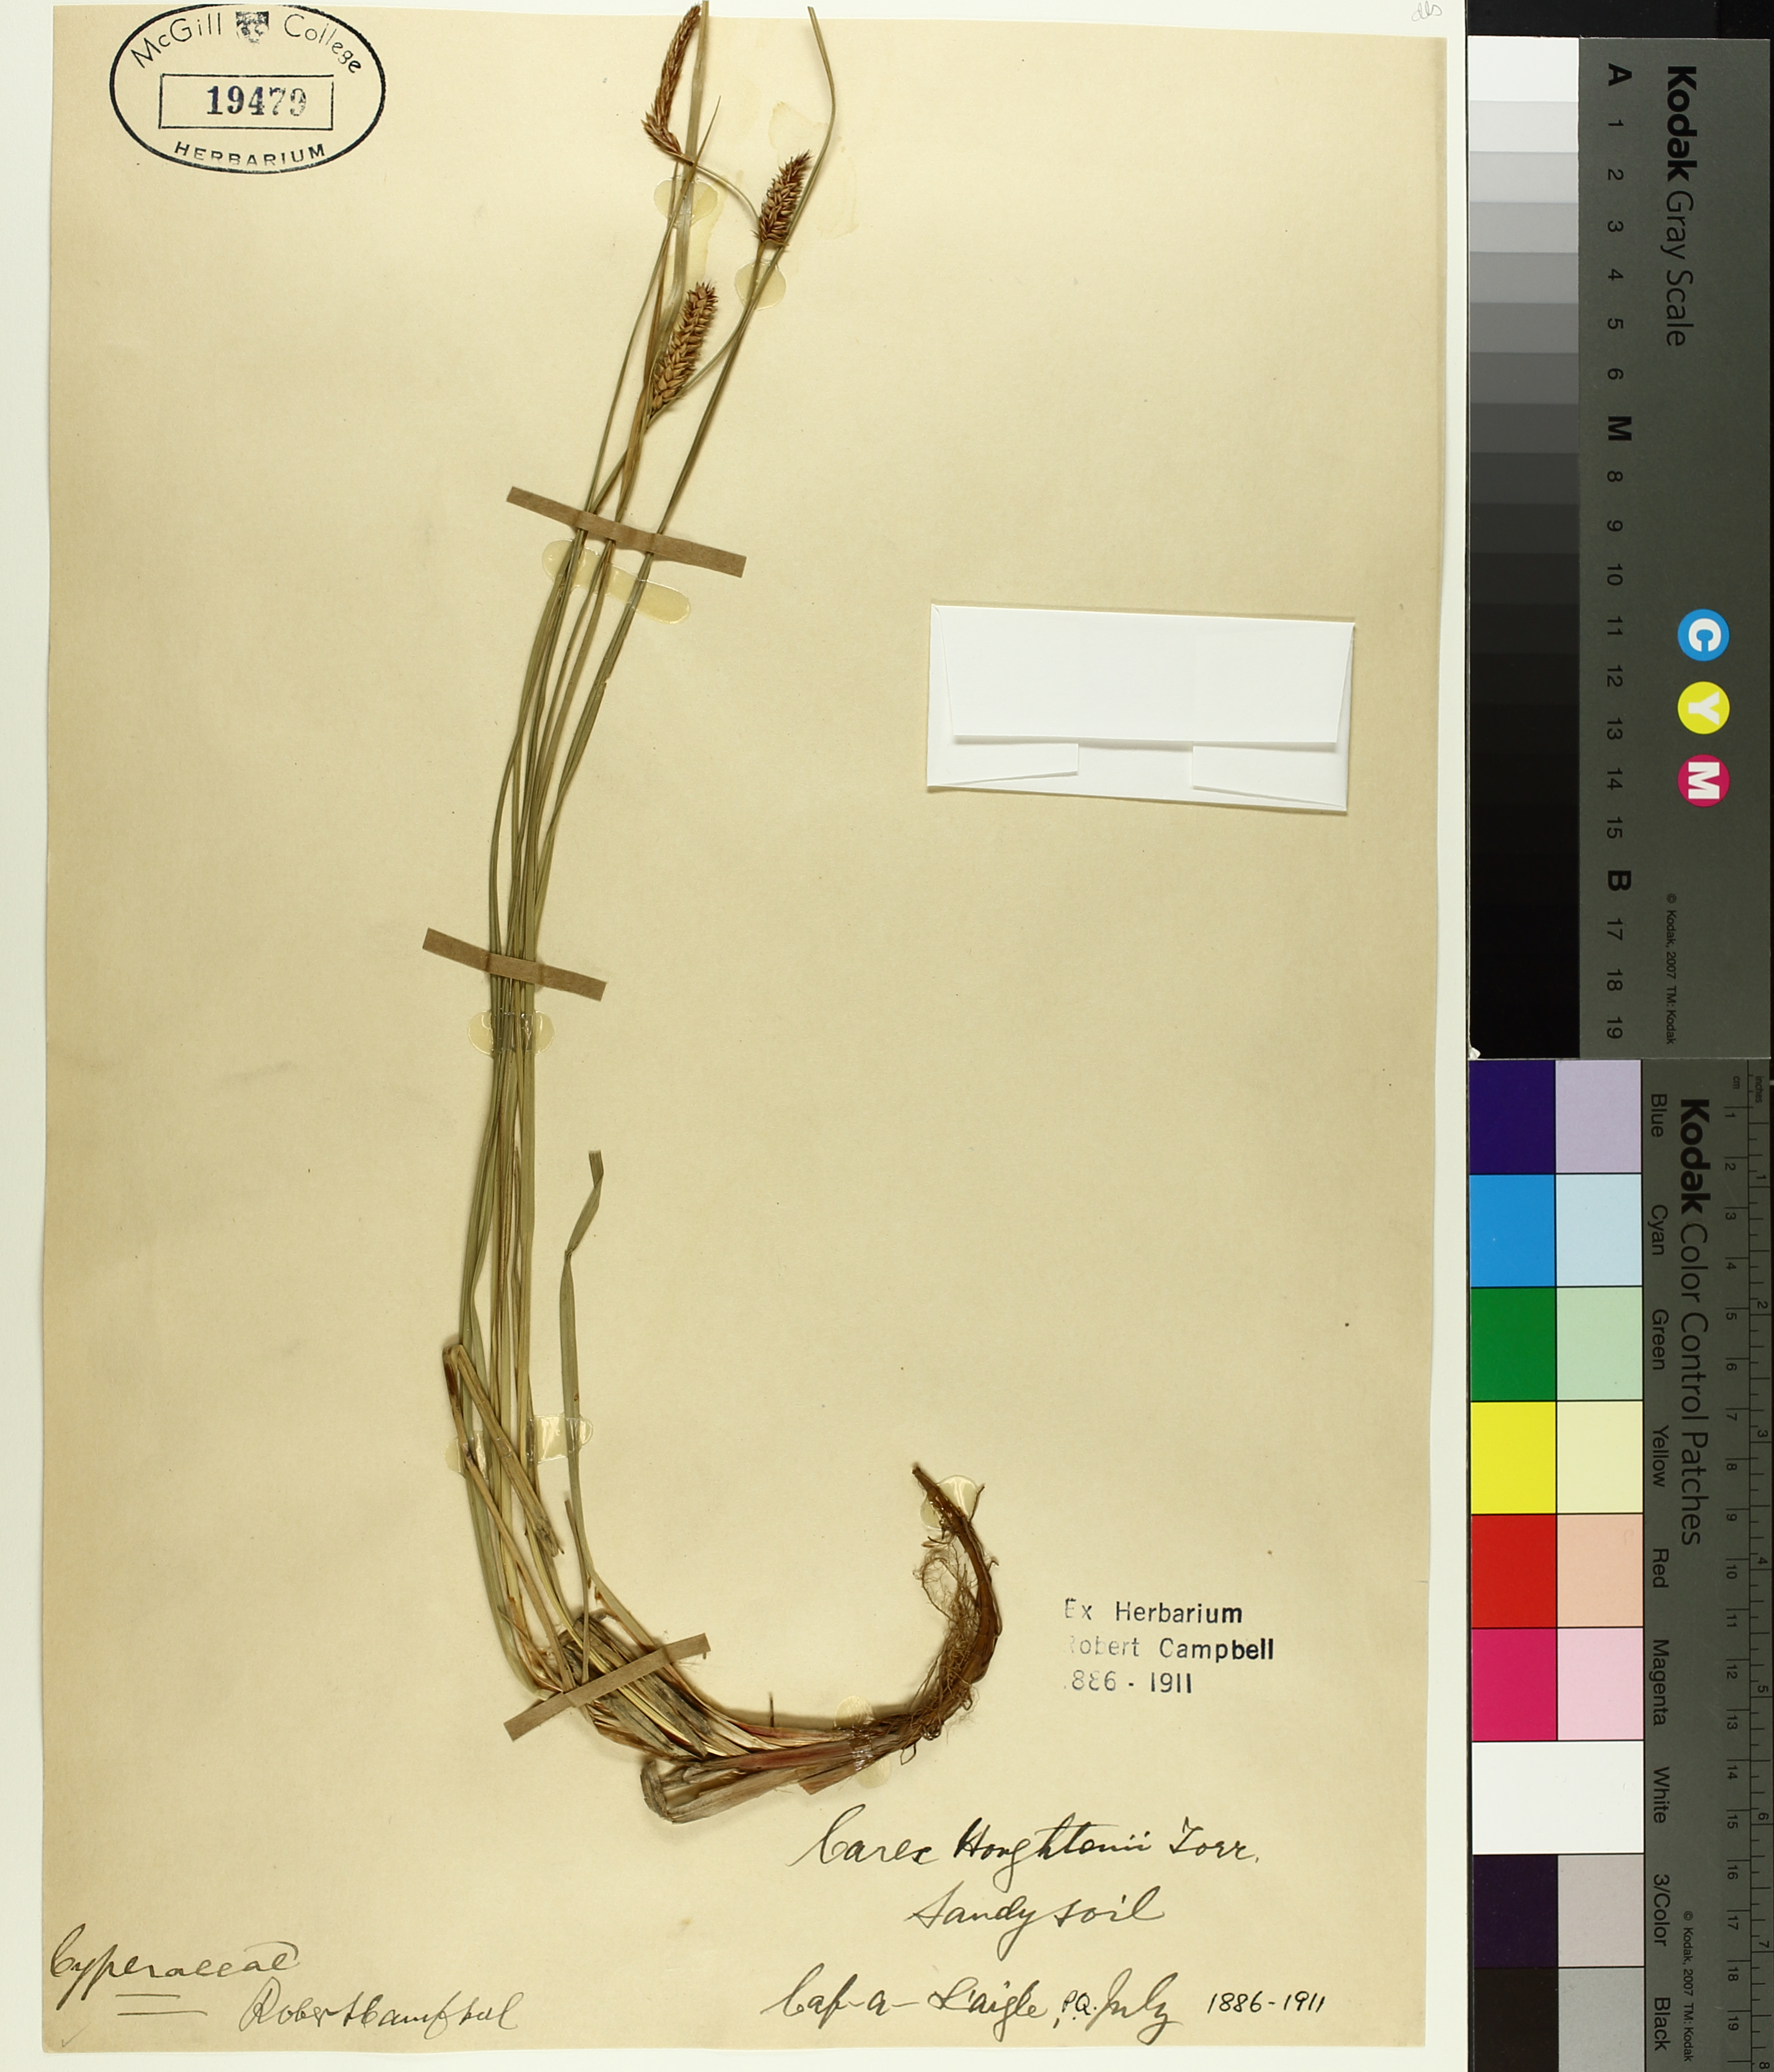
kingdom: Plantae
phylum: Tracheophyta
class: Liliopsida
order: Poales
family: Cyperaceae
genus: Carex
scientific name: Carex houghtoniana
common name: Houghton's sedge
